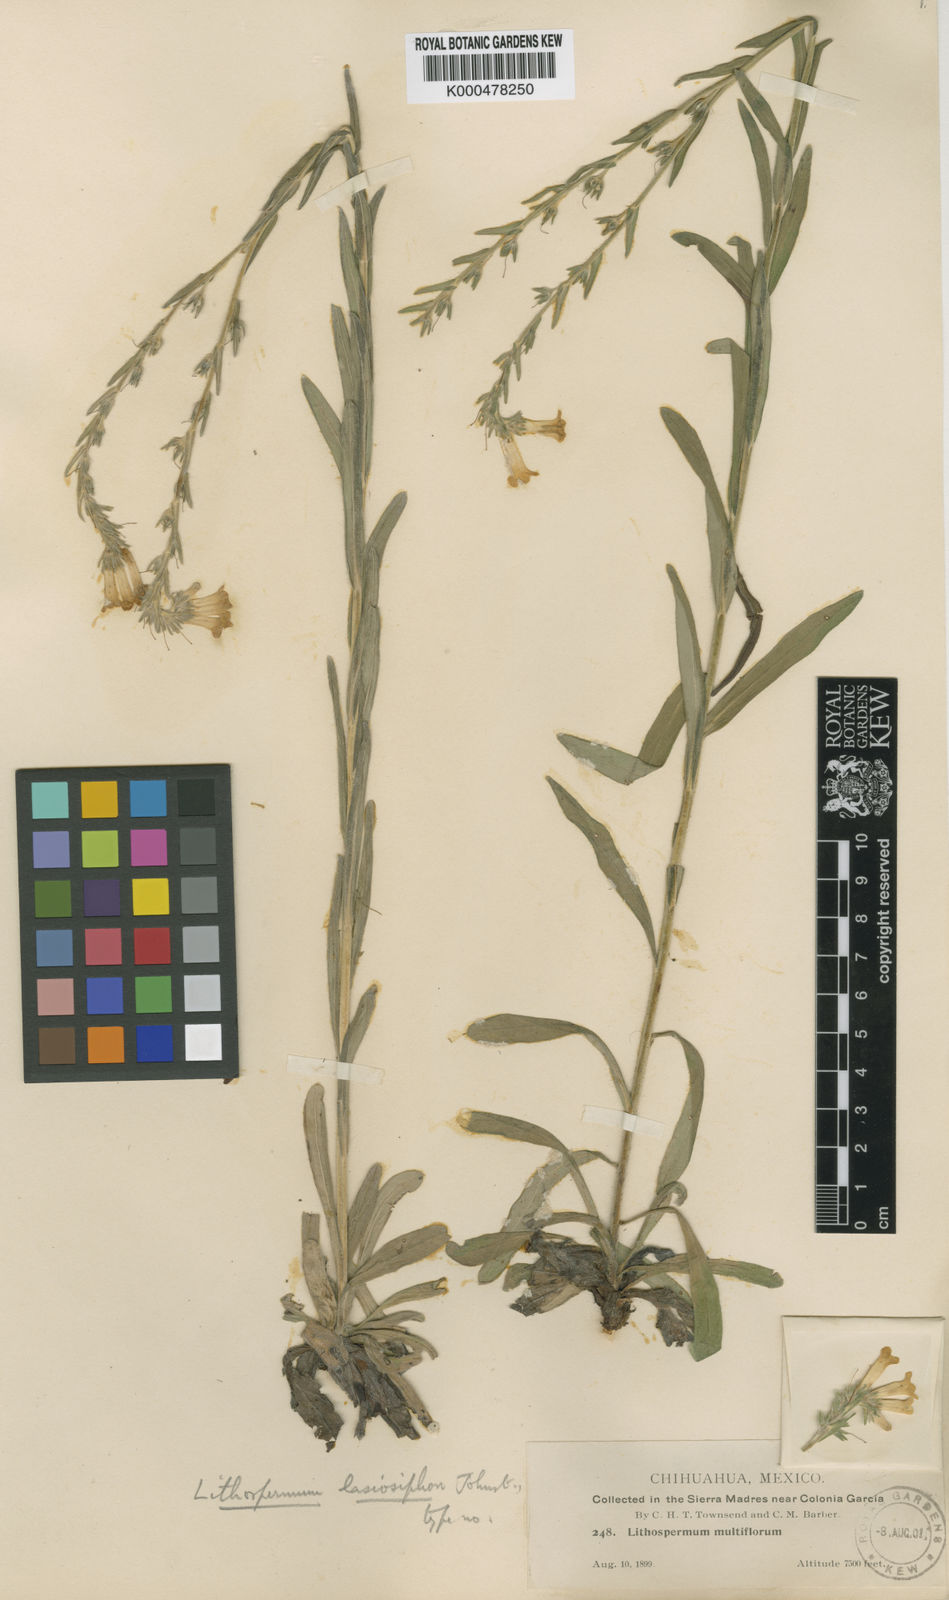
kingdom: Plantae
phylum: Tracheophyta
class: Magnoliopsida
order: Boraginales
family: Boraginaceae
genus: Lithospermum
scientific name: Lithospermum tubuliflorum
